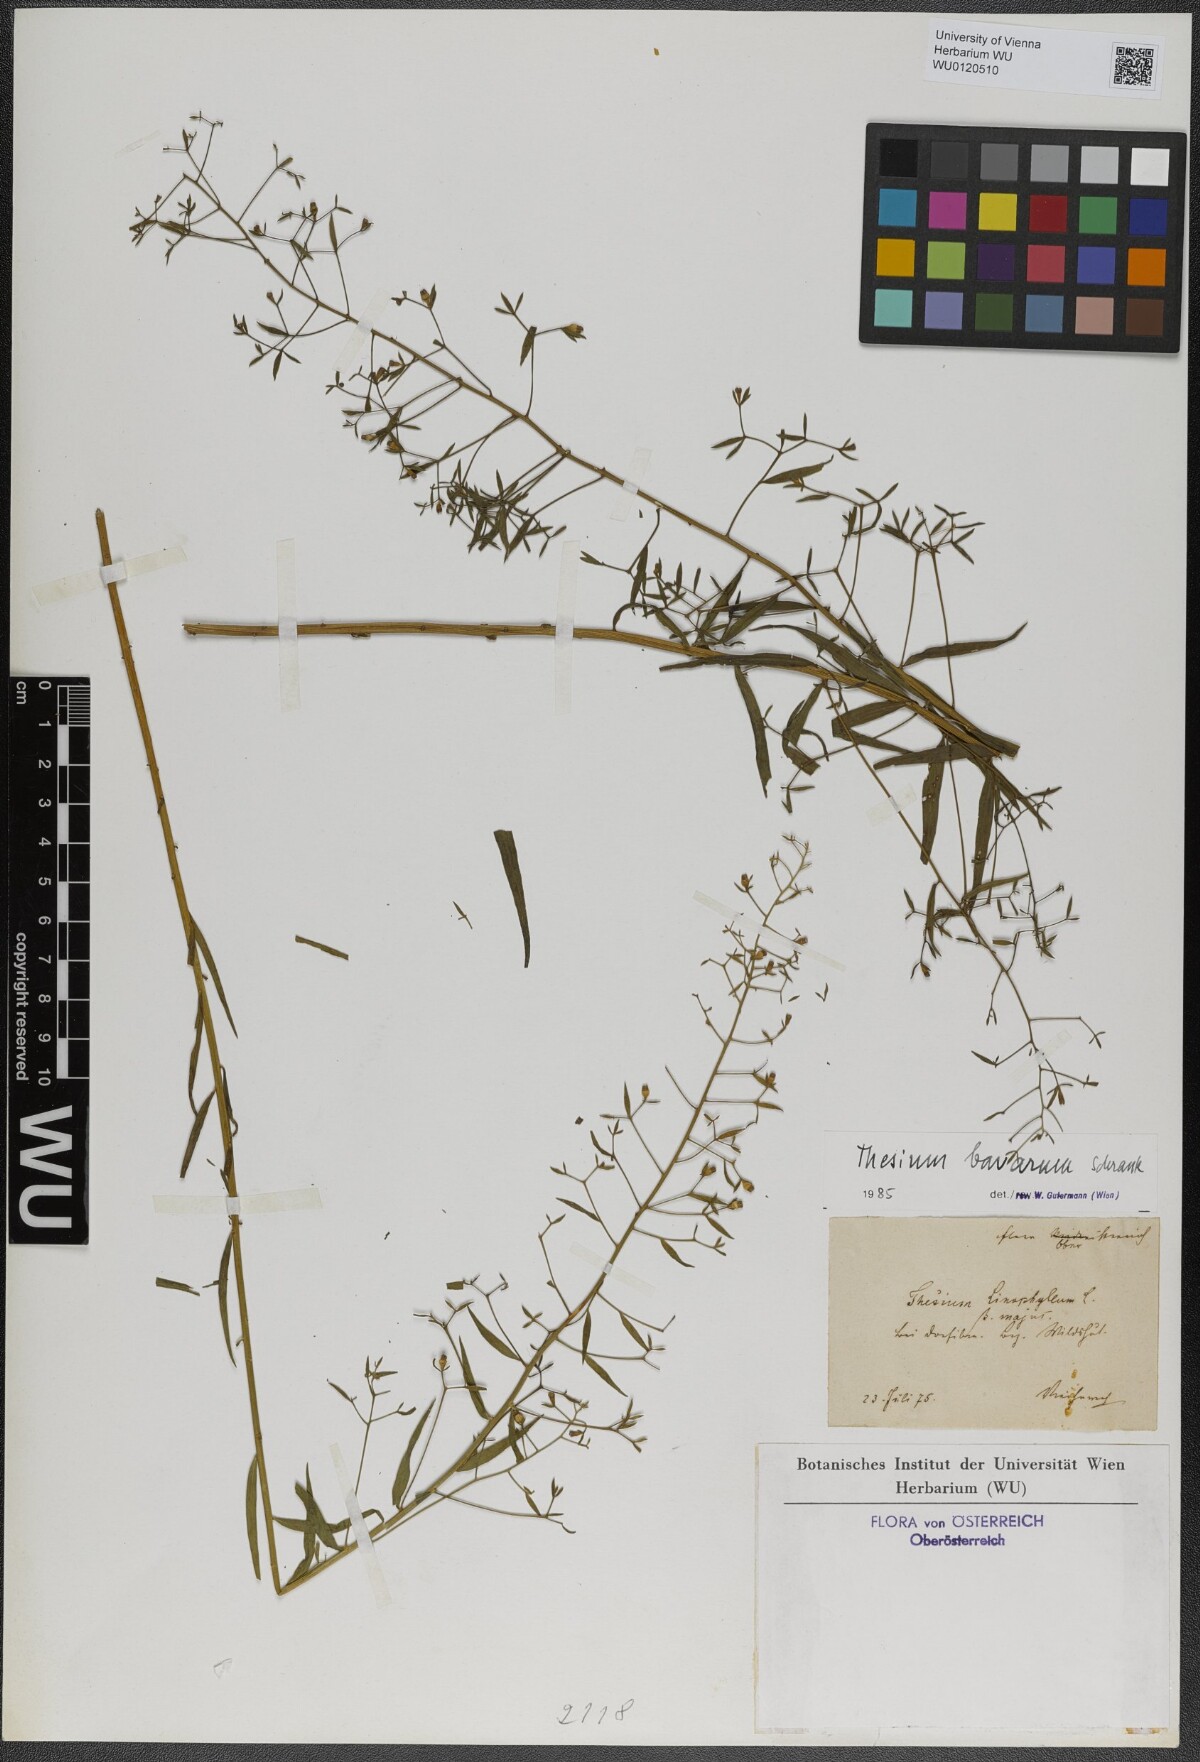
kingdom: Plantae
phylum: Tracheophyta
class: Magnoliopsida
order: Santalales
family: Thesiaceae
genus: Thesium
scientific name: Thesium bavarum
